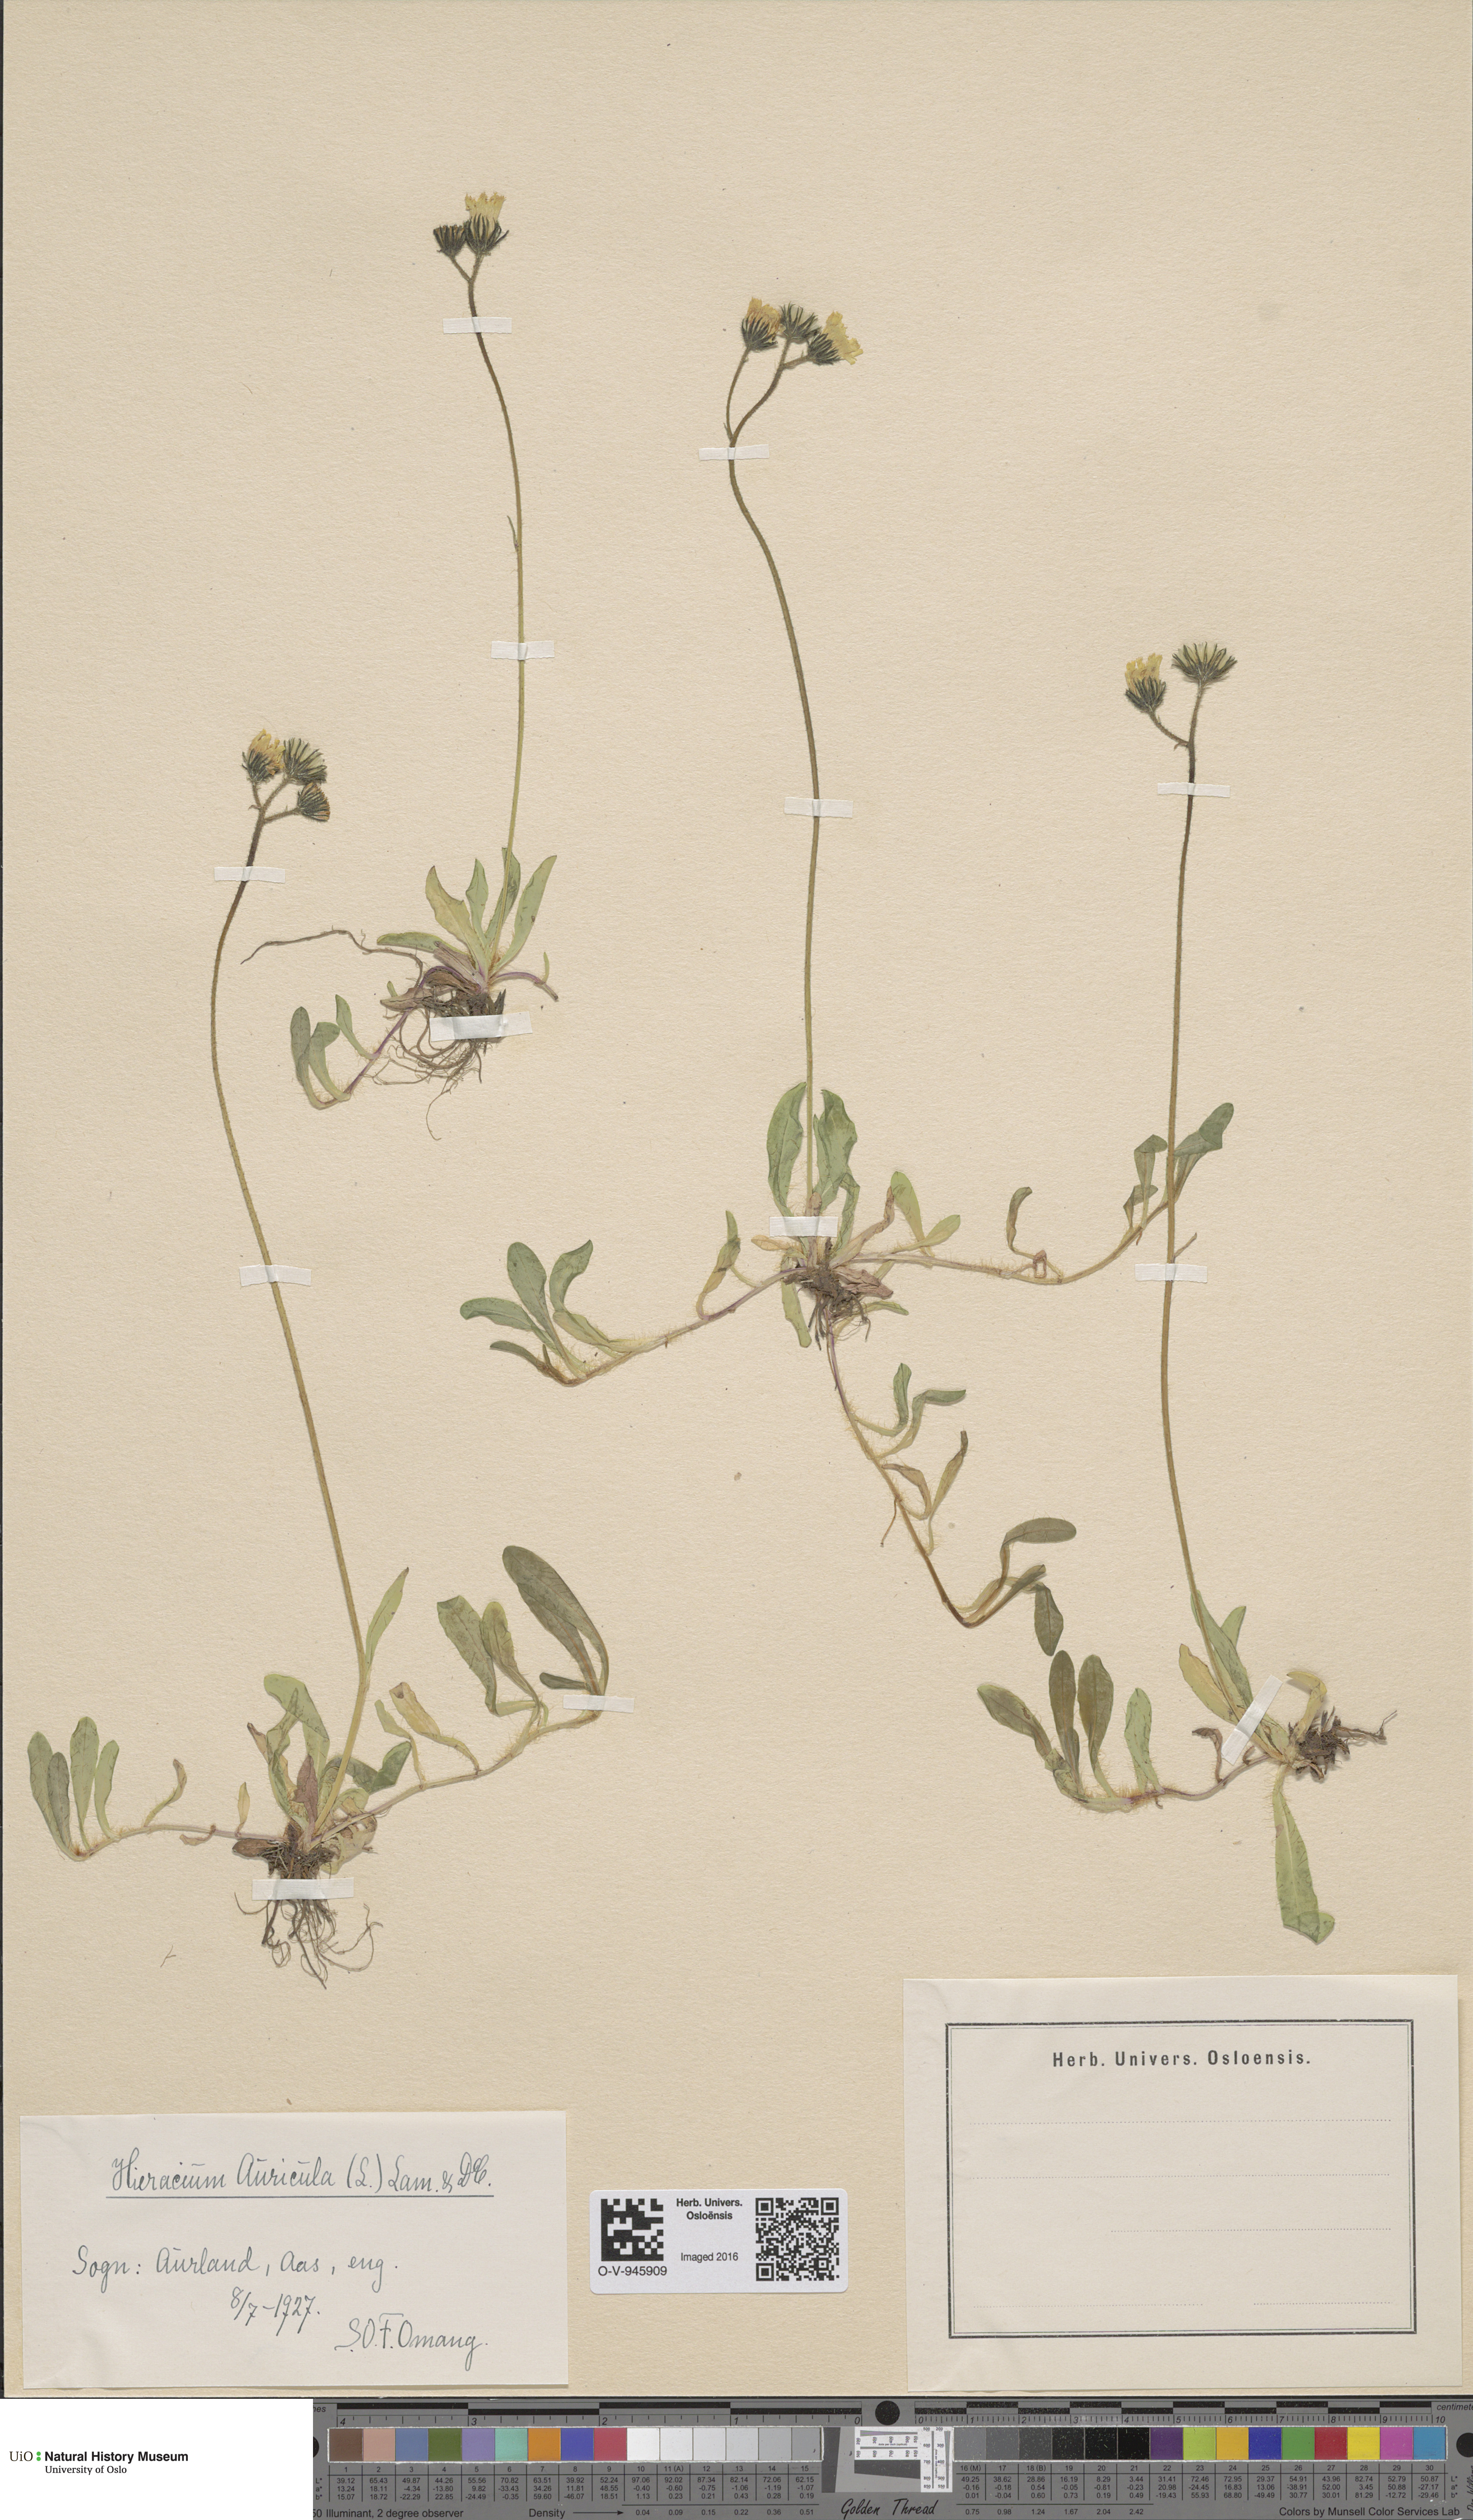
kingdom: Plantae
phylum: Tracheophyta
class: Magnoliopsida
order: Asterales
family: Asteraceae
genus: Pilosella
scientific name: Pilosella lactucella
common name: Glaucous fox-and-cubs
